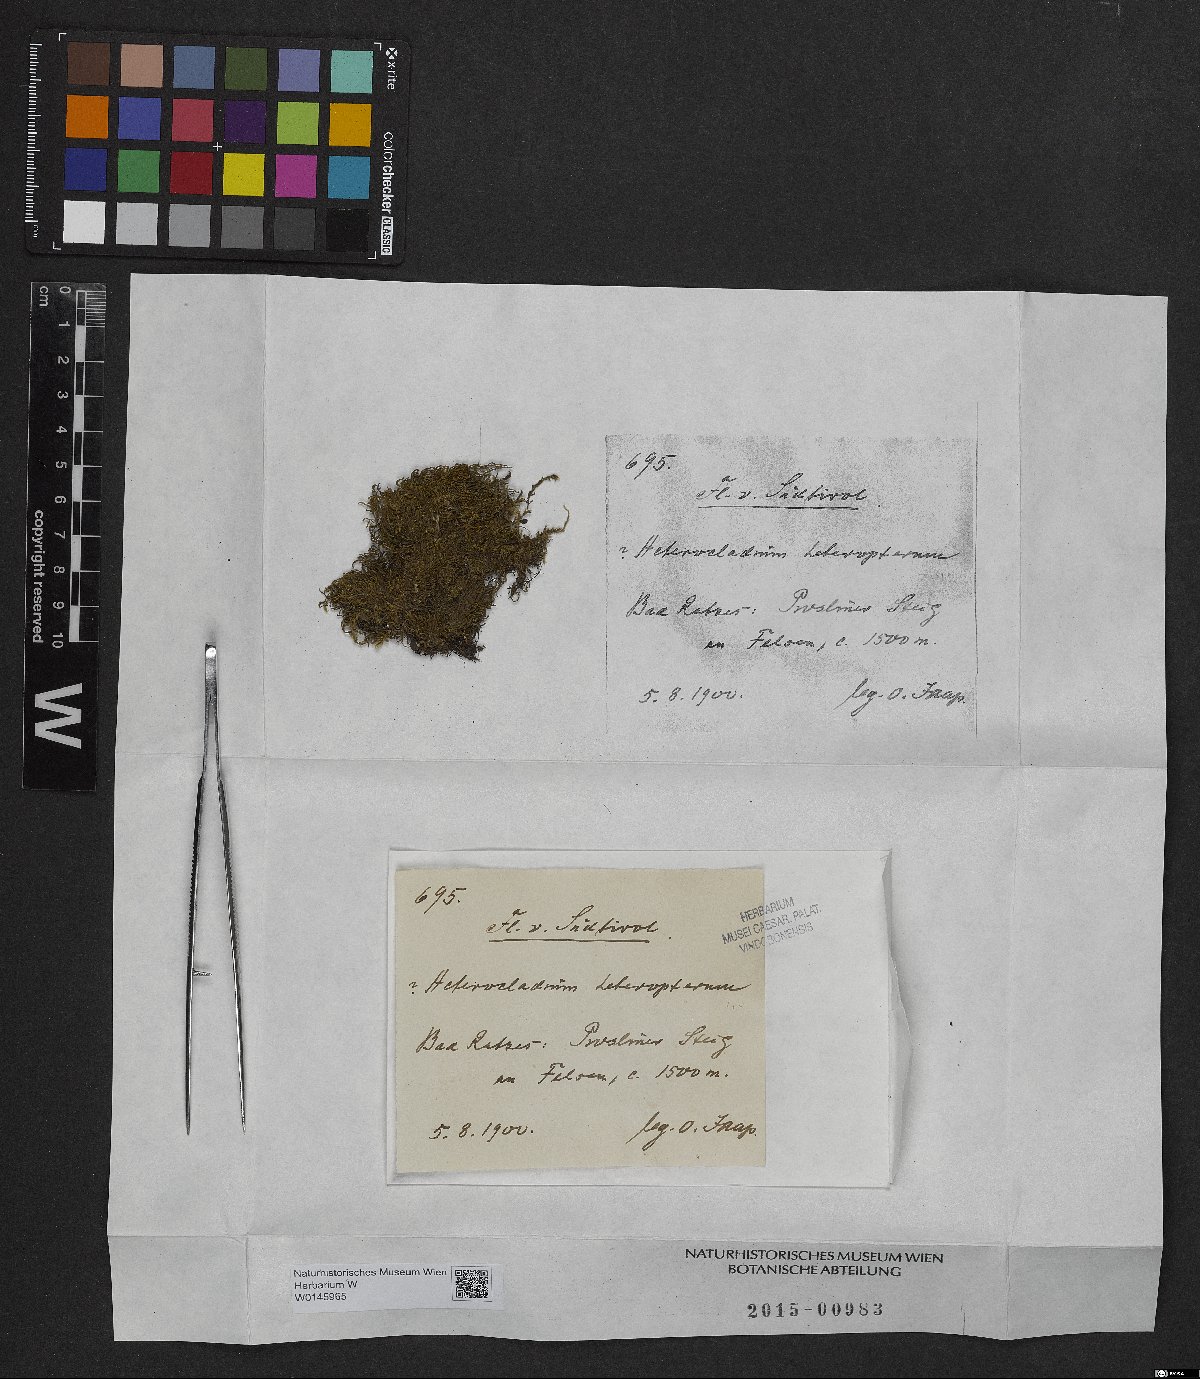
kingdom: Plantae
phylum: Bryophyta
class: Bryopsida
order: Hypnales
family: Lembophyllaceae
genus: Heterocladium
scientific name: Heterocladium heteropterum
